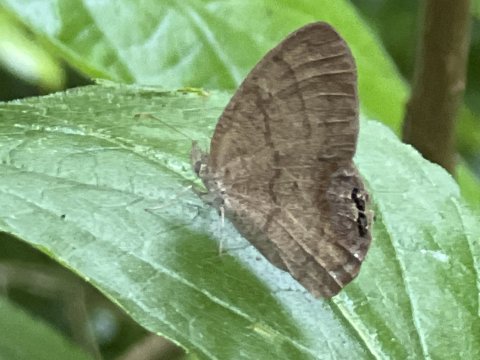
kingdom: Animalia
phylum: Arthropoda
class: Insecta
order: Lepidoptera
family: Nymphalidae
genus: Euptychia
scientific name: Euptychia cornelius
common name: Gemmed Satyr
